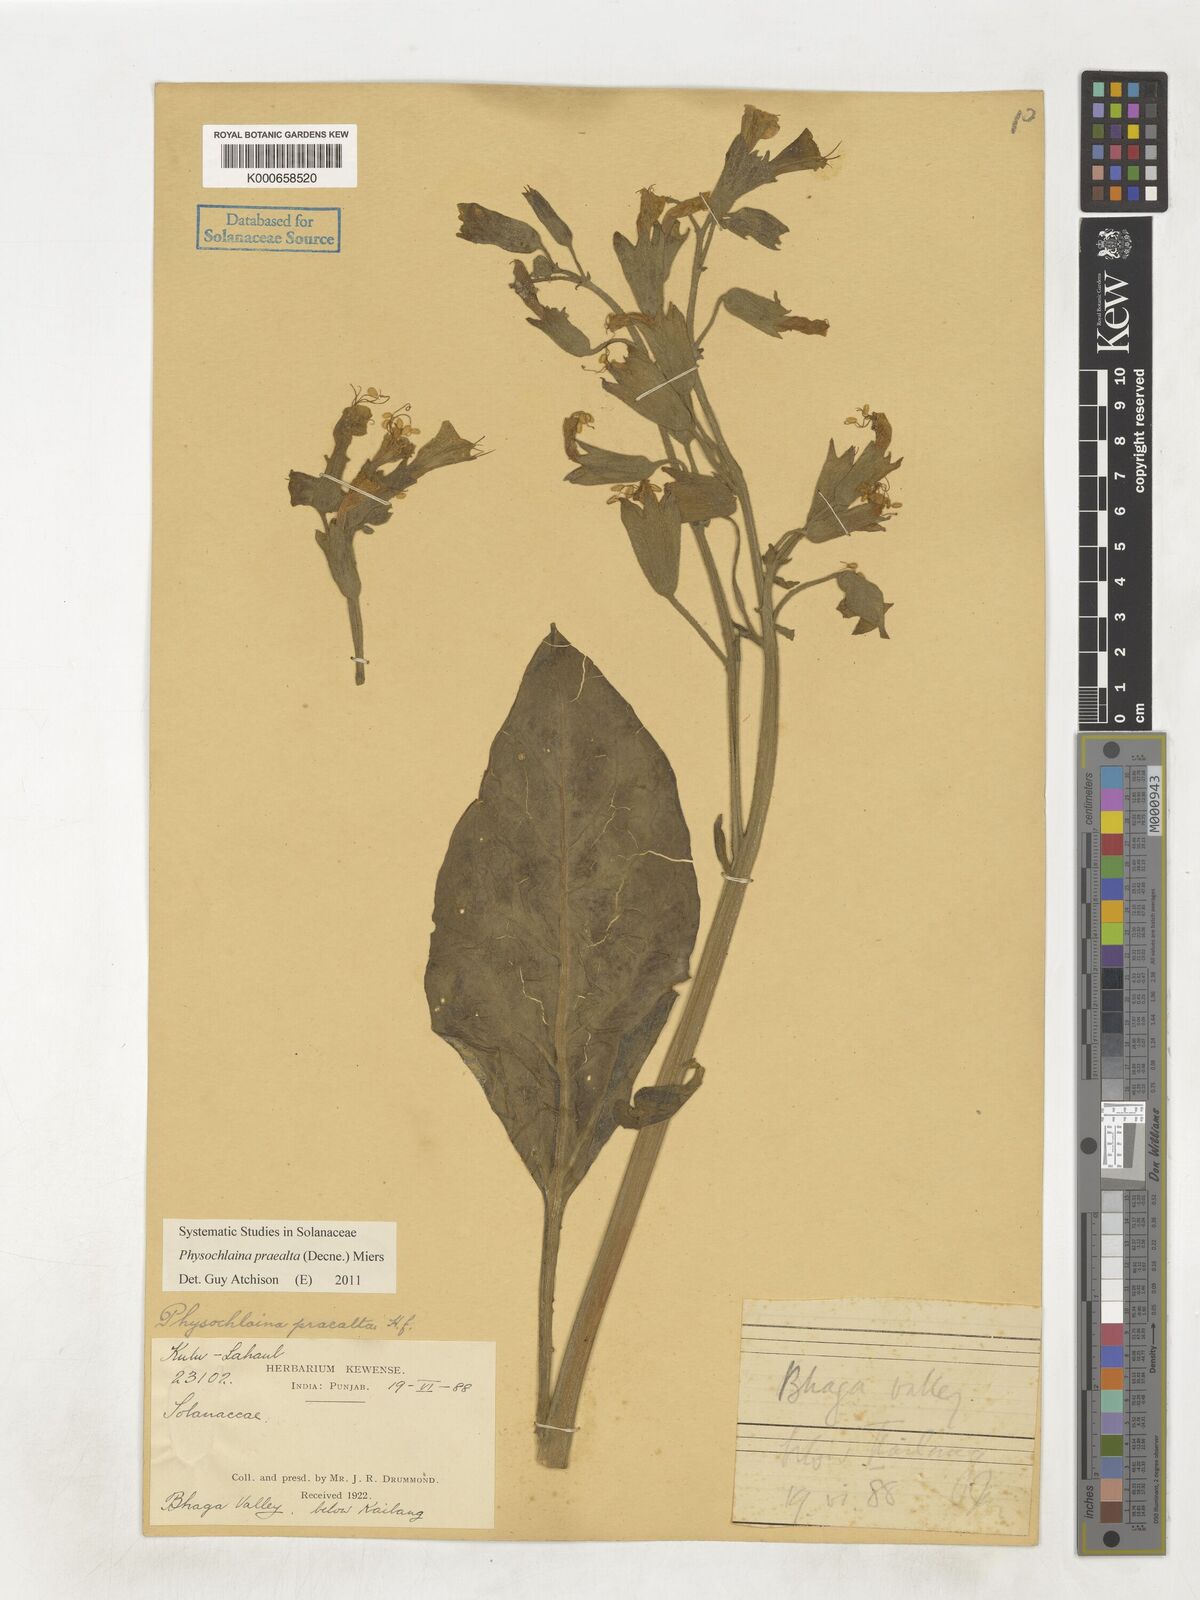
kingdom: Plantae
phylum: Tracheophyta
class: Magnoliopsida
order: Solanales
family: Solanaceae
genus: Physochlaina
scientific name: Physochlaina praealta
